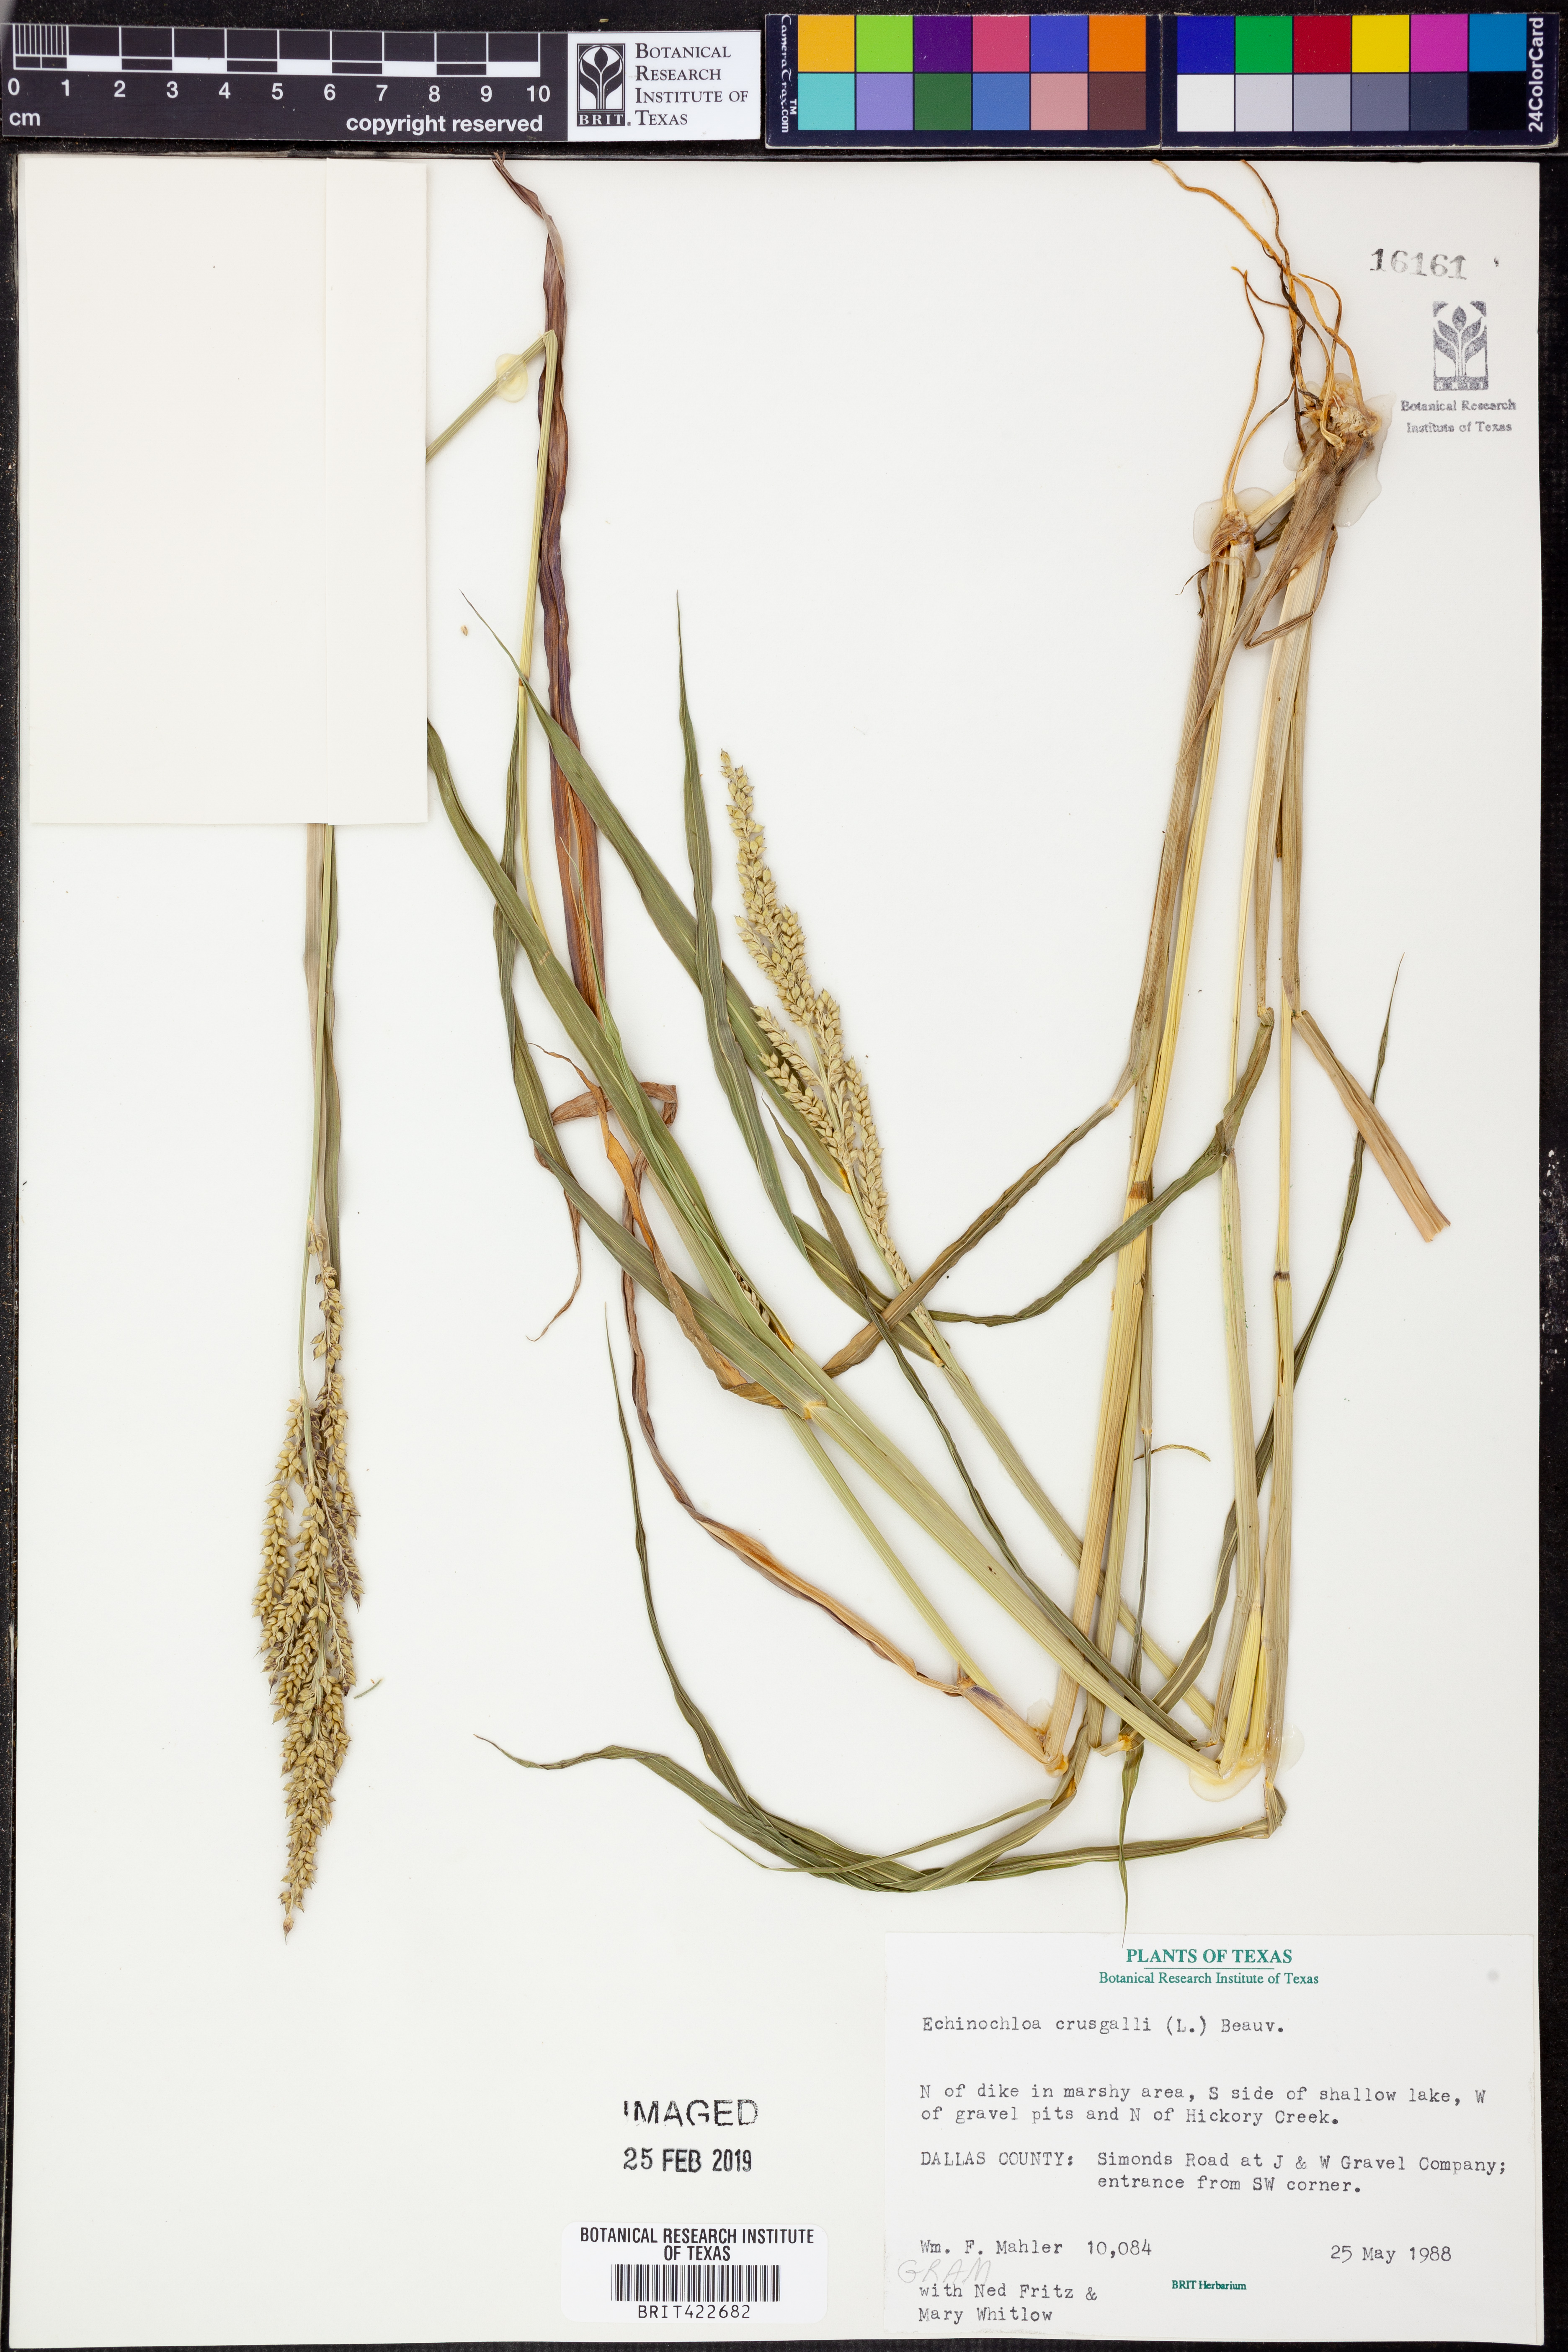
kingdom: Plantae
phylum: Tracheophyta
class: Liliopsida
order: Poales
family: Poaceae
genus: Echinochloa
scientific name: Echinochloa crus-galli
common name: Cockspur
